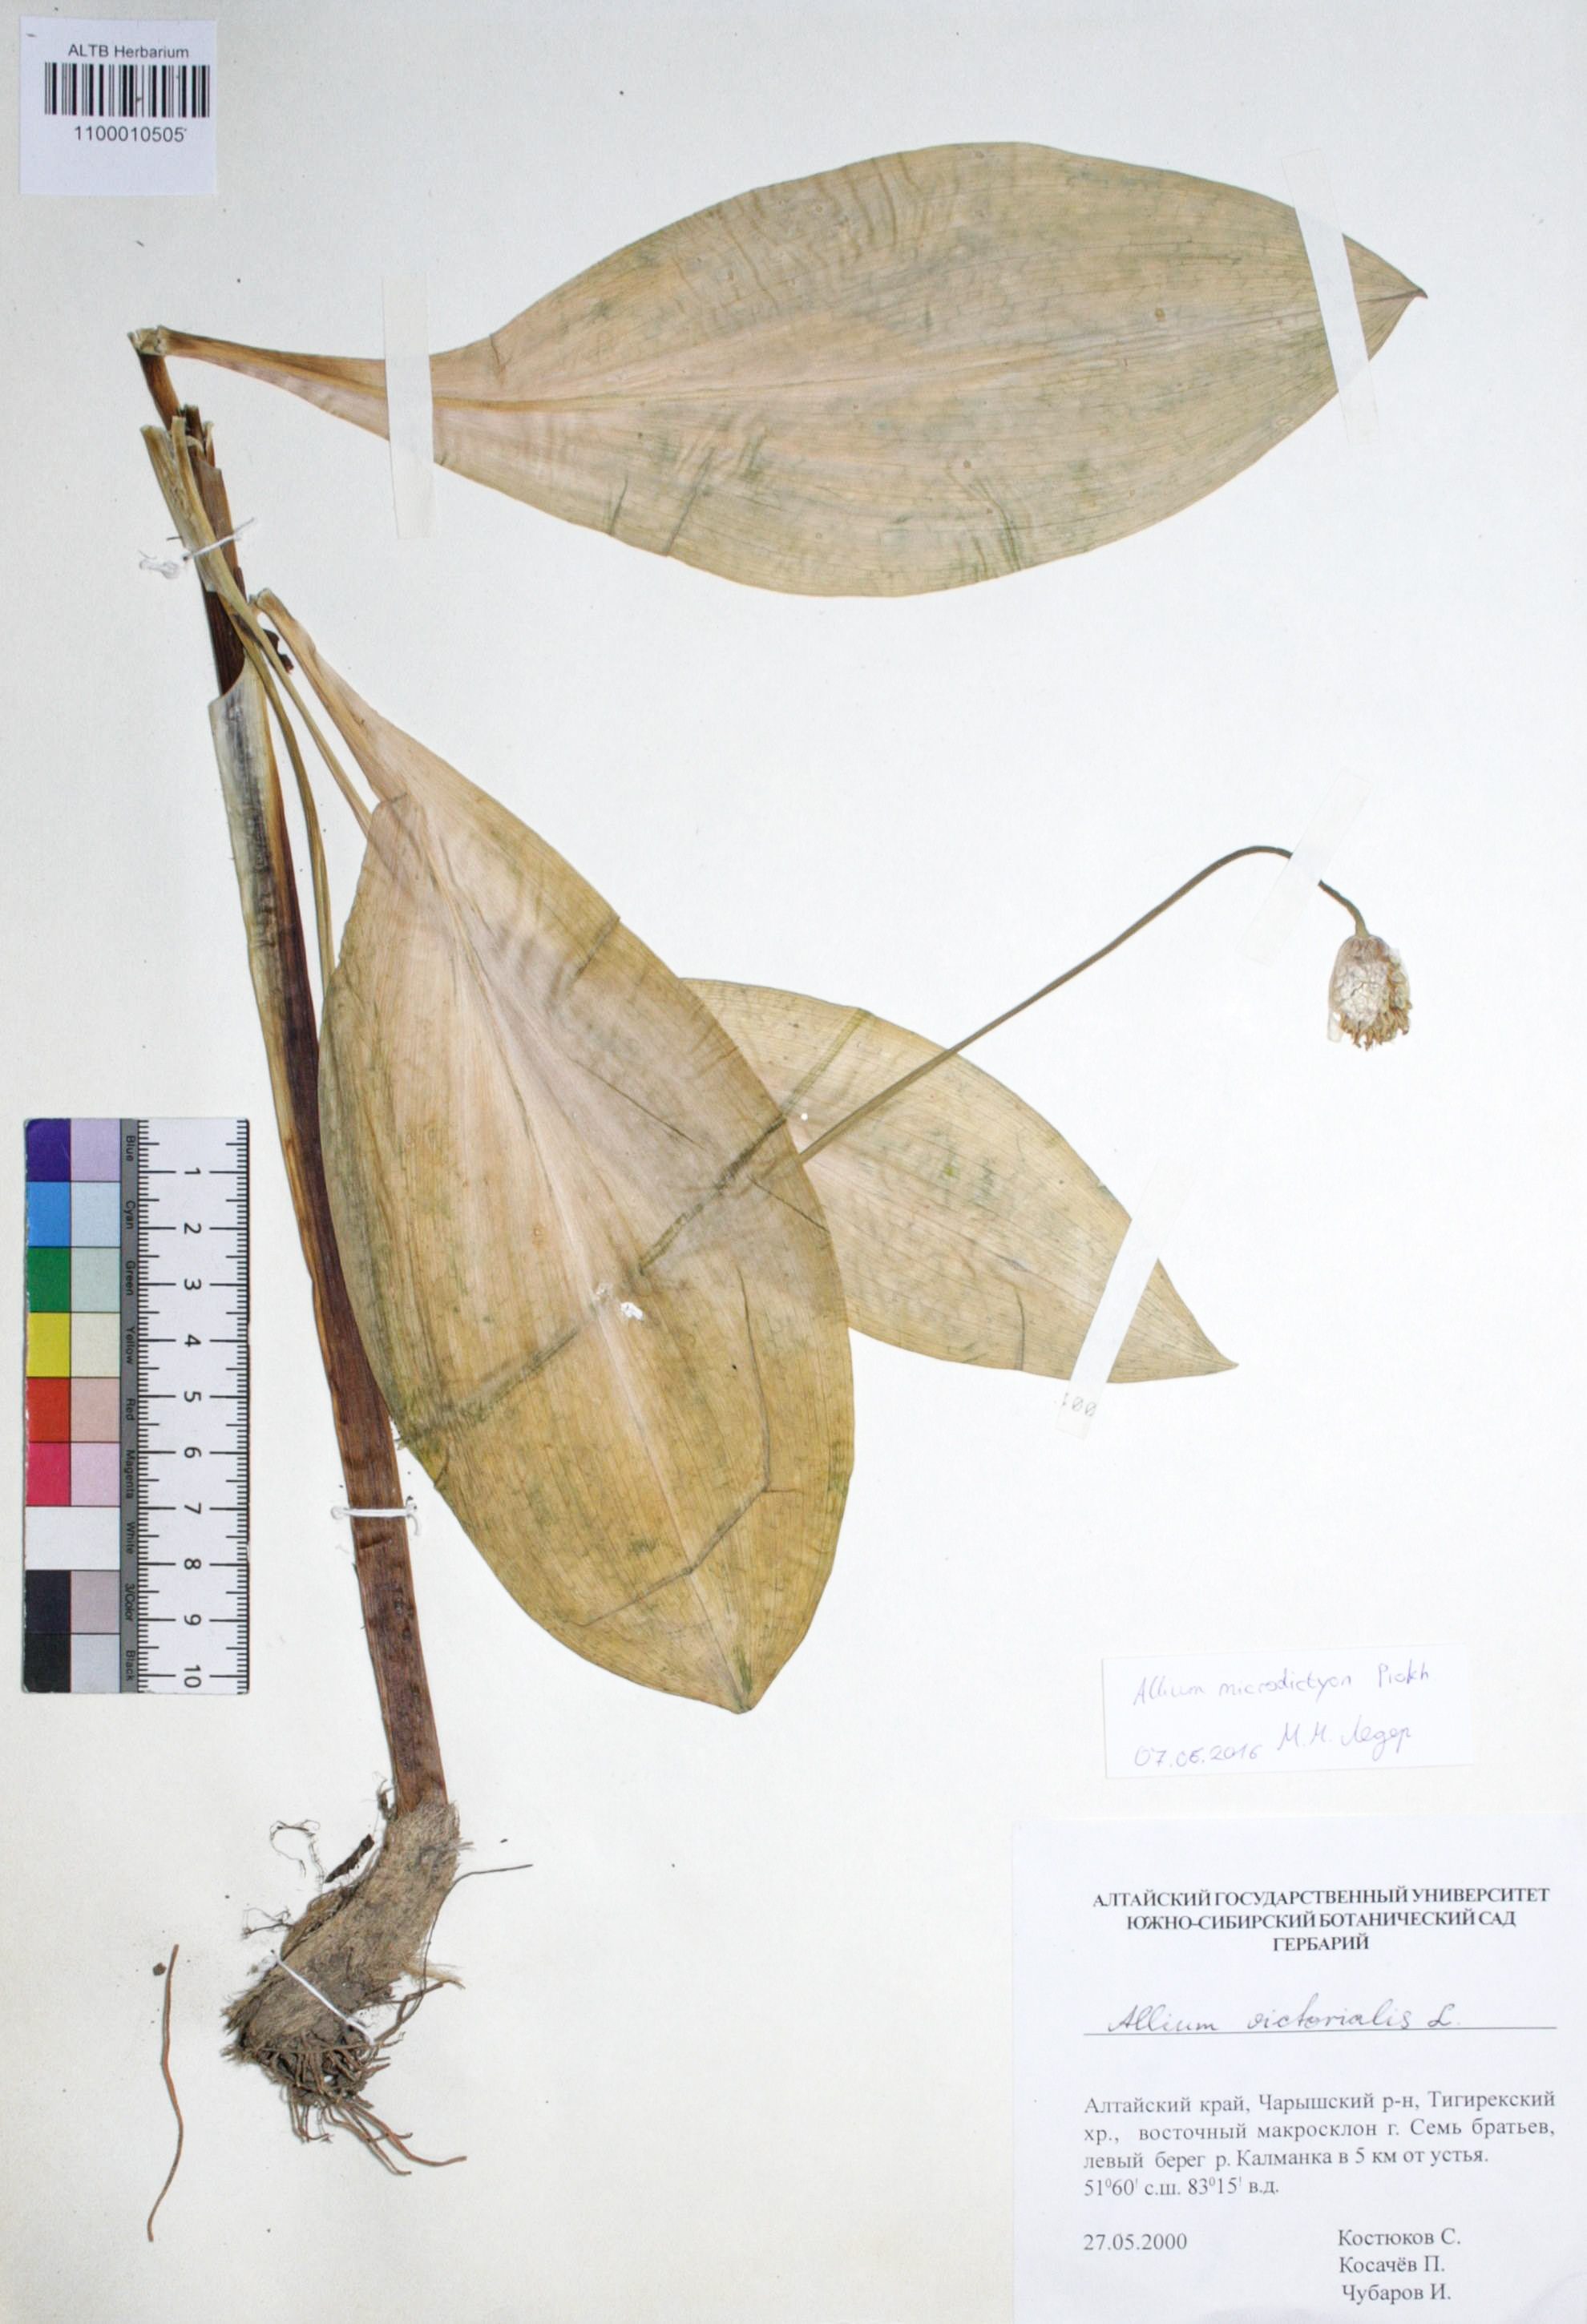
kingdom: Plantae
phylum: Tracheophyta
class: Liliopsida
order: Asparagales
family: Amaryllidaceae
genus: Allium
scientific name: Allium victorialis
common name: Alpine leek
